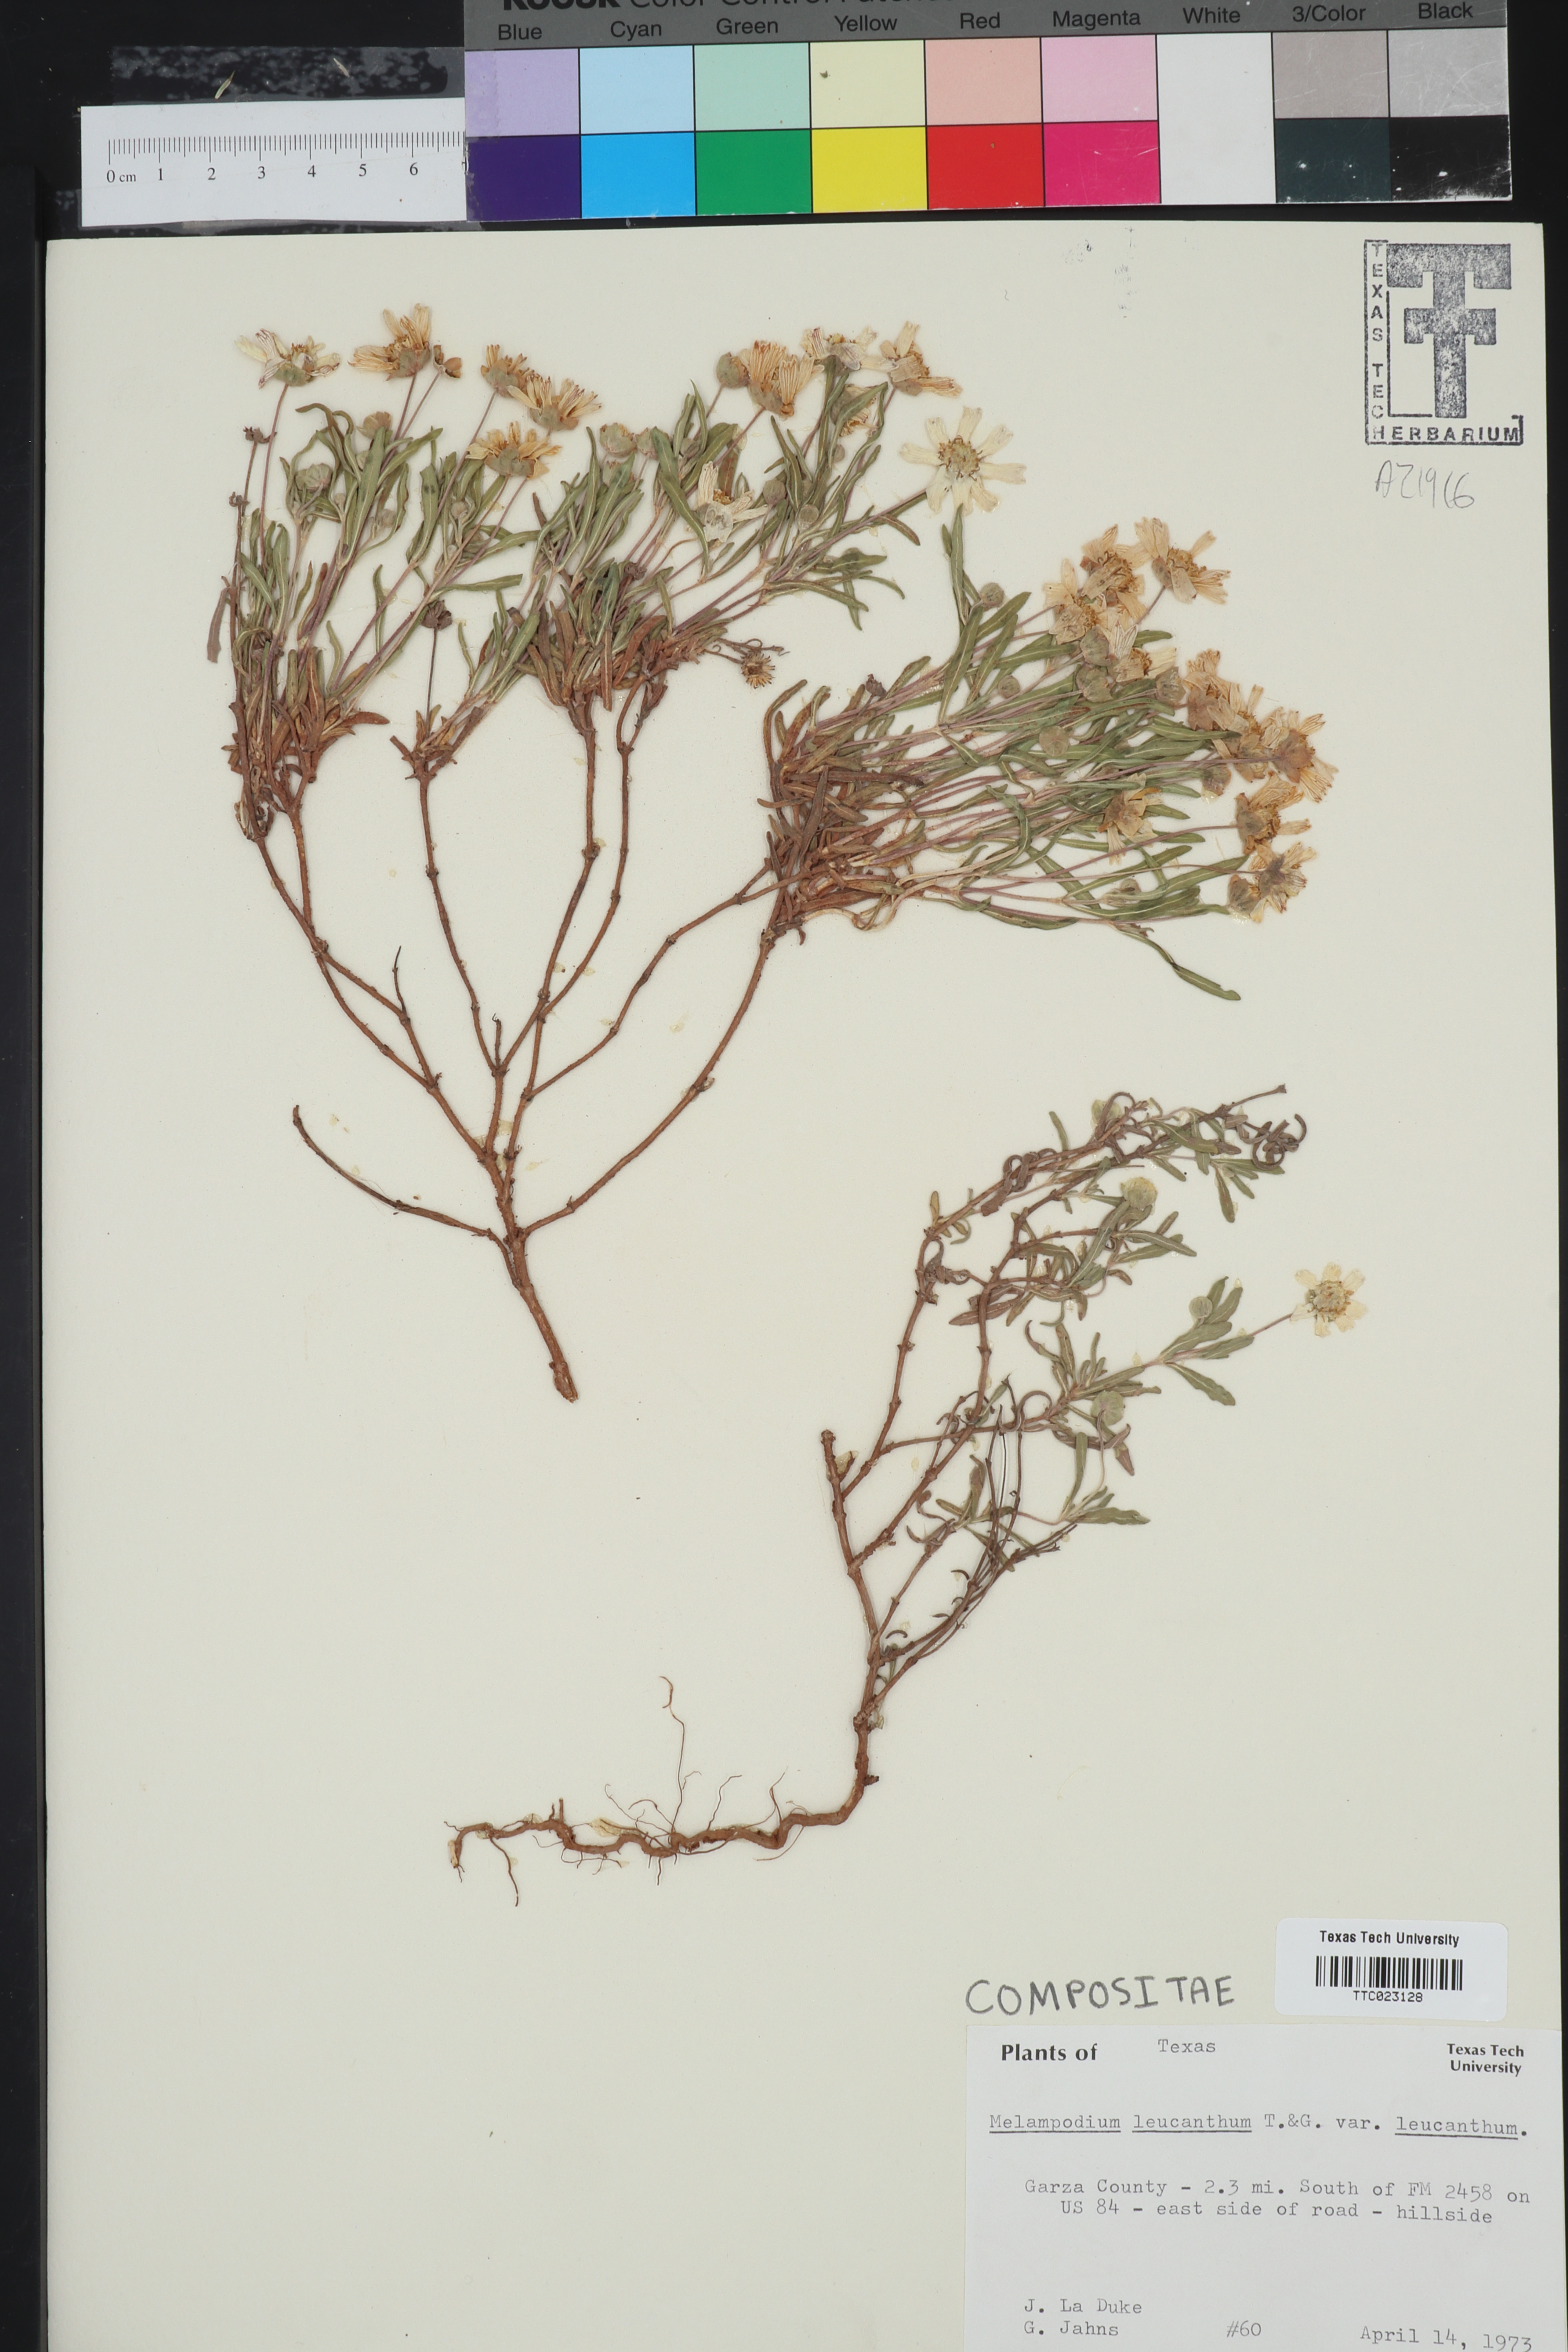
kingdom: Plantae
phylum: Tracheophyta
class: Magnoliopsida
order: Asterales
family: Asteraceae
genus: Melampodium
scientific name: Melampodium leucanthum
